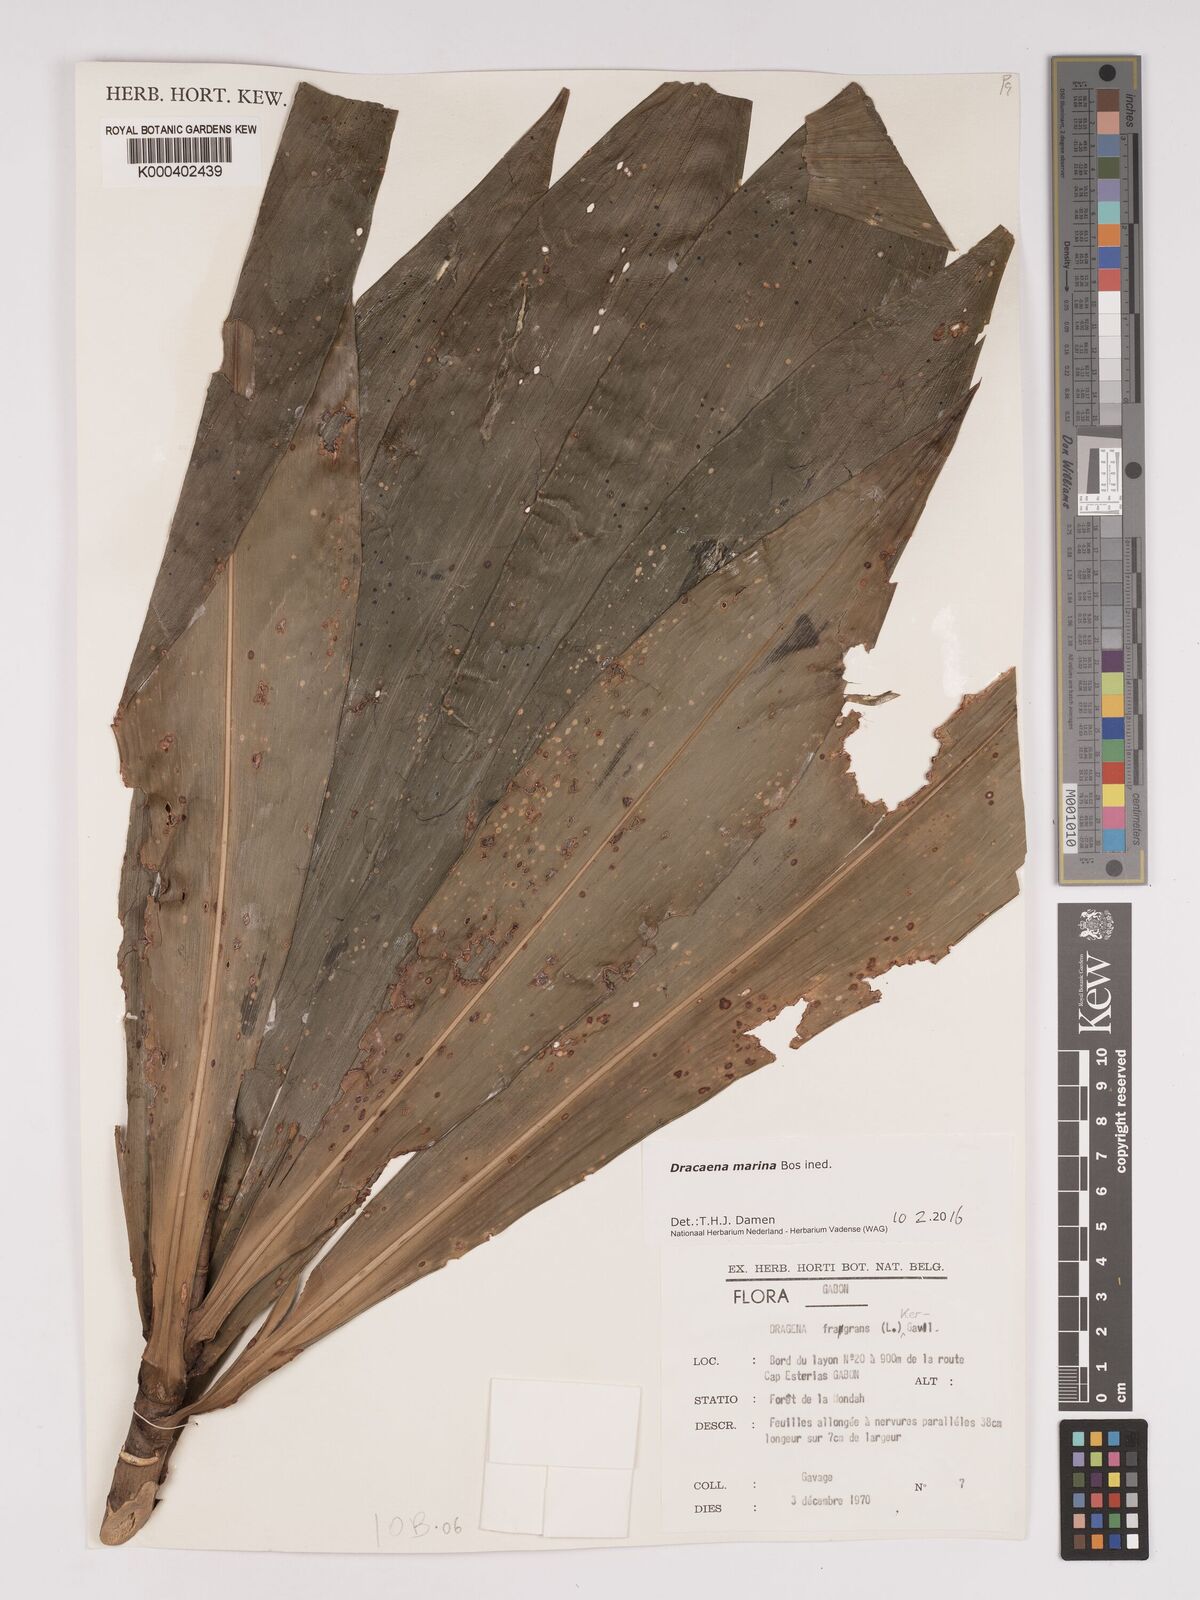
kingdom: Plantae
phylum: Tracheophyta
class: Liliopsida
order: Asparagales
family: Asparagaceae
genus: Dracaena
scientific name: Dracaena marina
